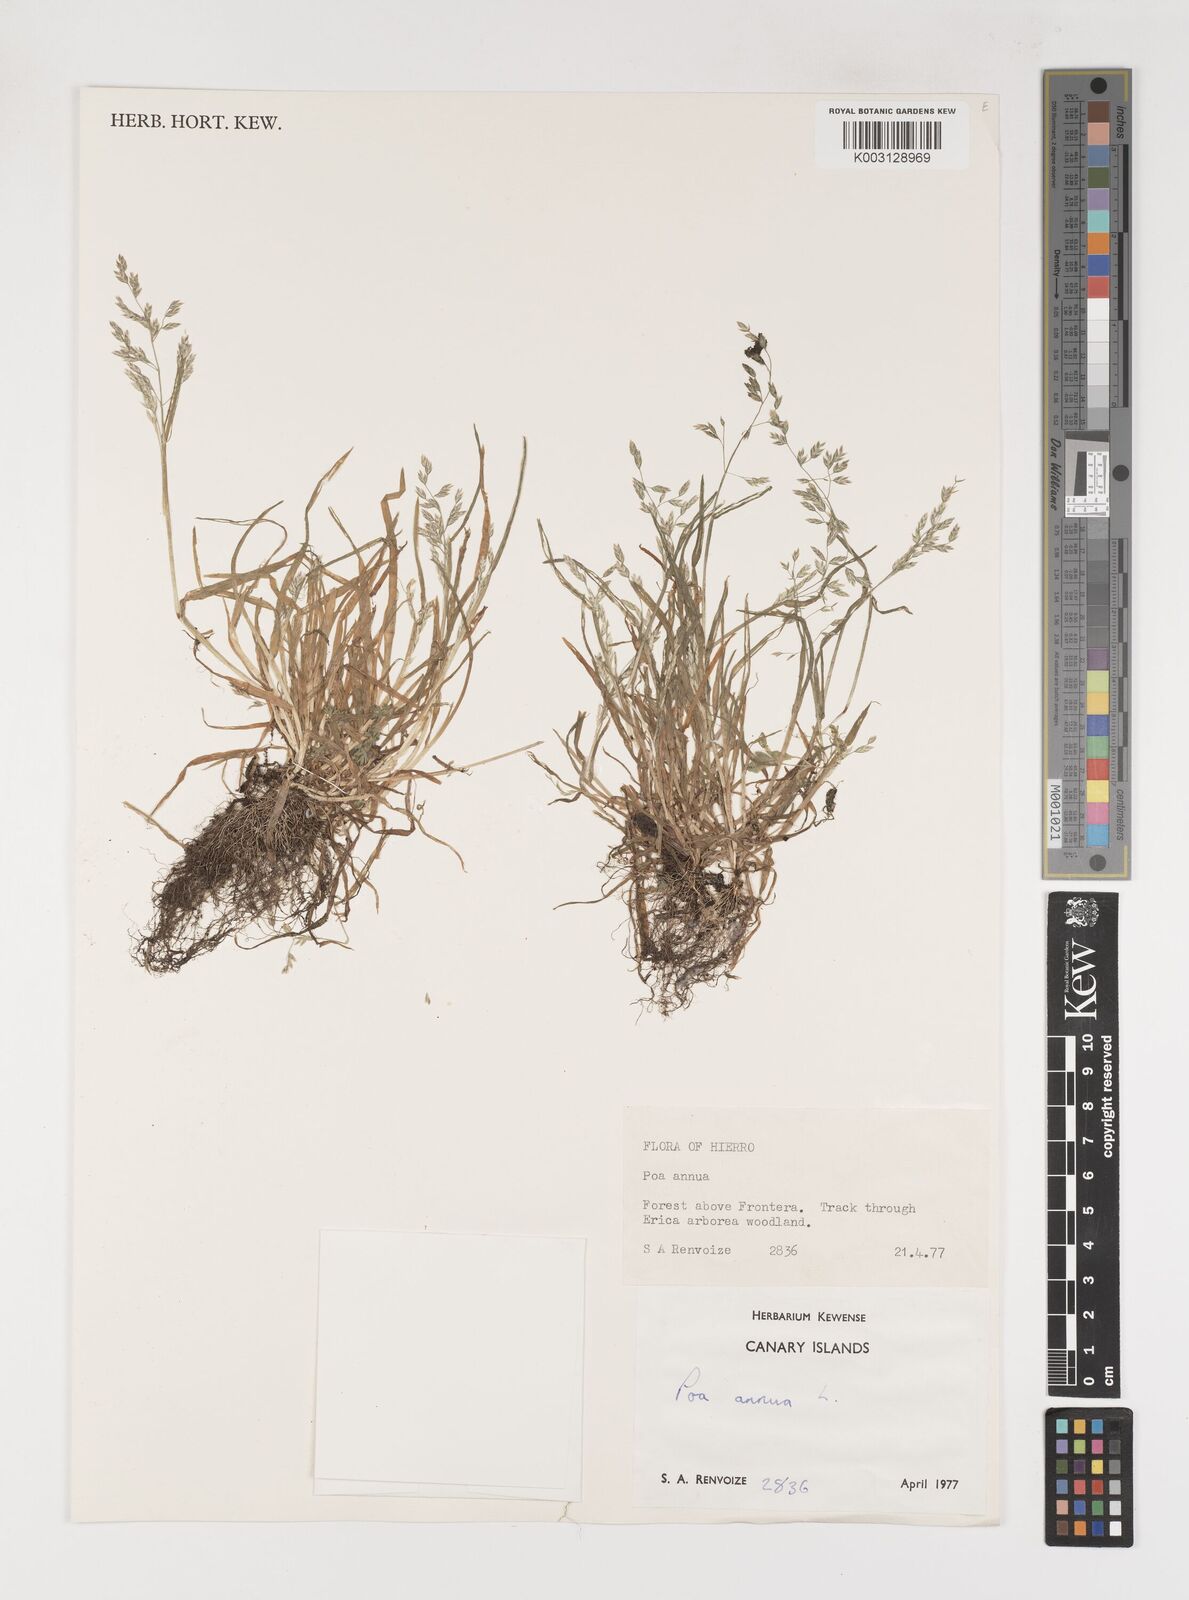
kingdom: Plantae
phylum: Tracheophyta
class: Liliopsida
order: Poales
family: Poaceae
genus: Poa
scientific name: Poa annua
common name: Annual bluegrass
